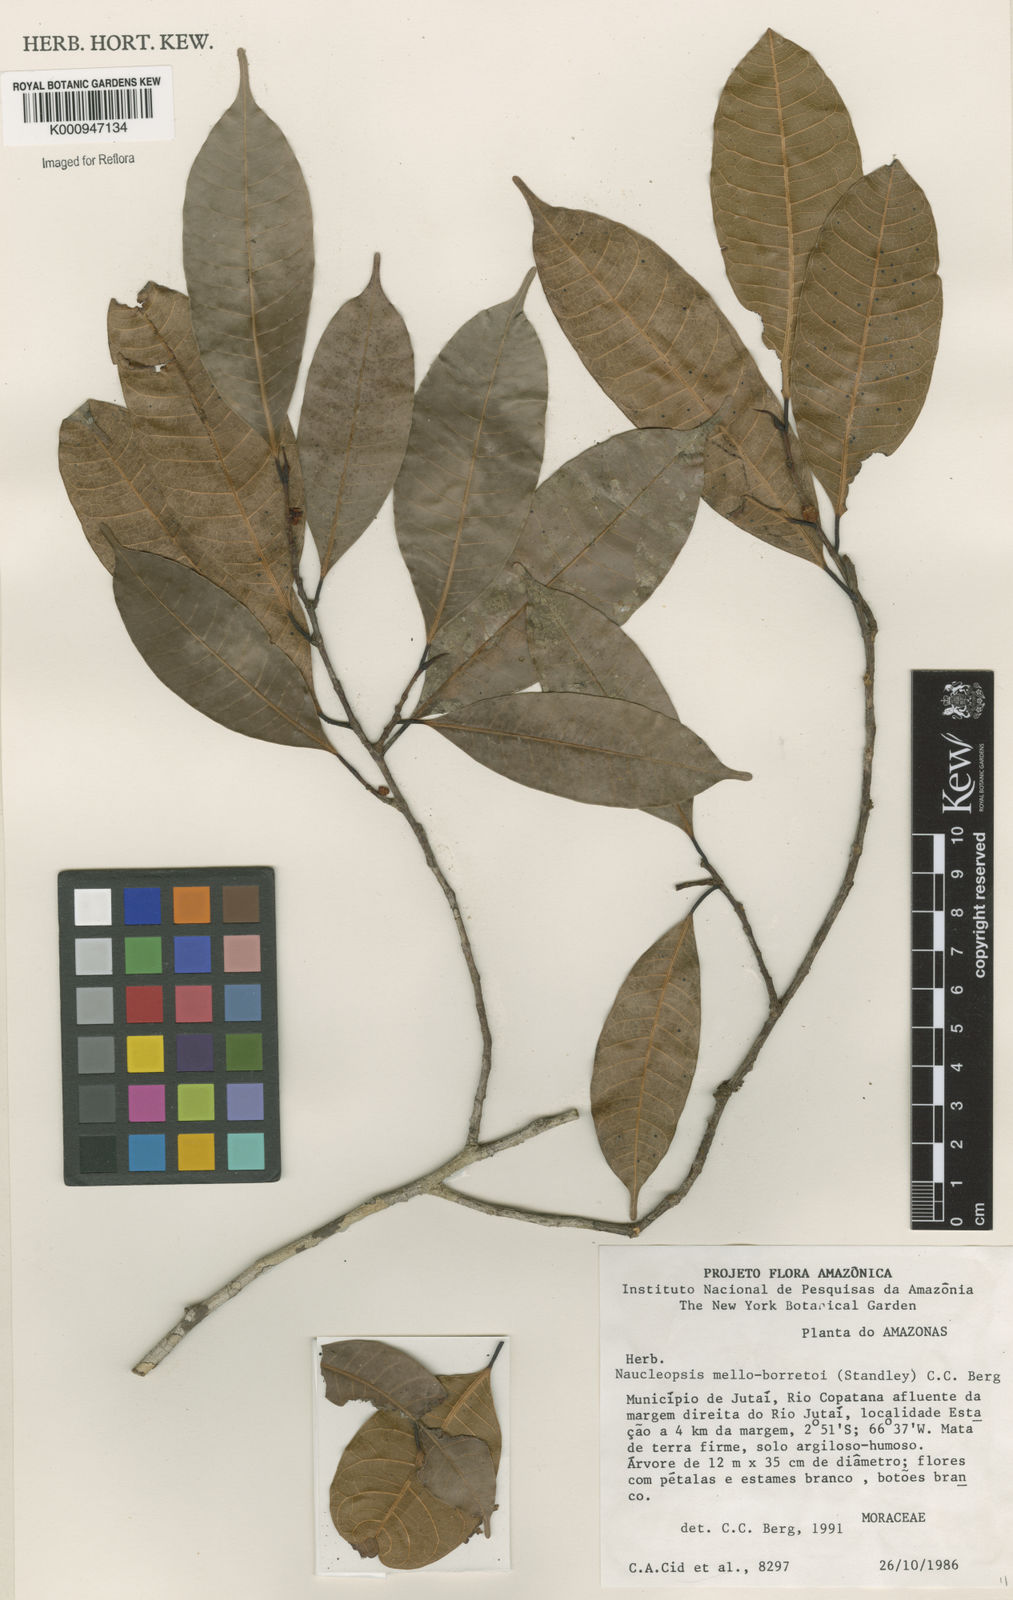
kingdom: Plantae
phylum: Tracheophyta
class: Magnoliopsida
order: Rosales
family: Moraceae
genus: Naucleopsis
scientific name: Naucleopsis oblongifolia
